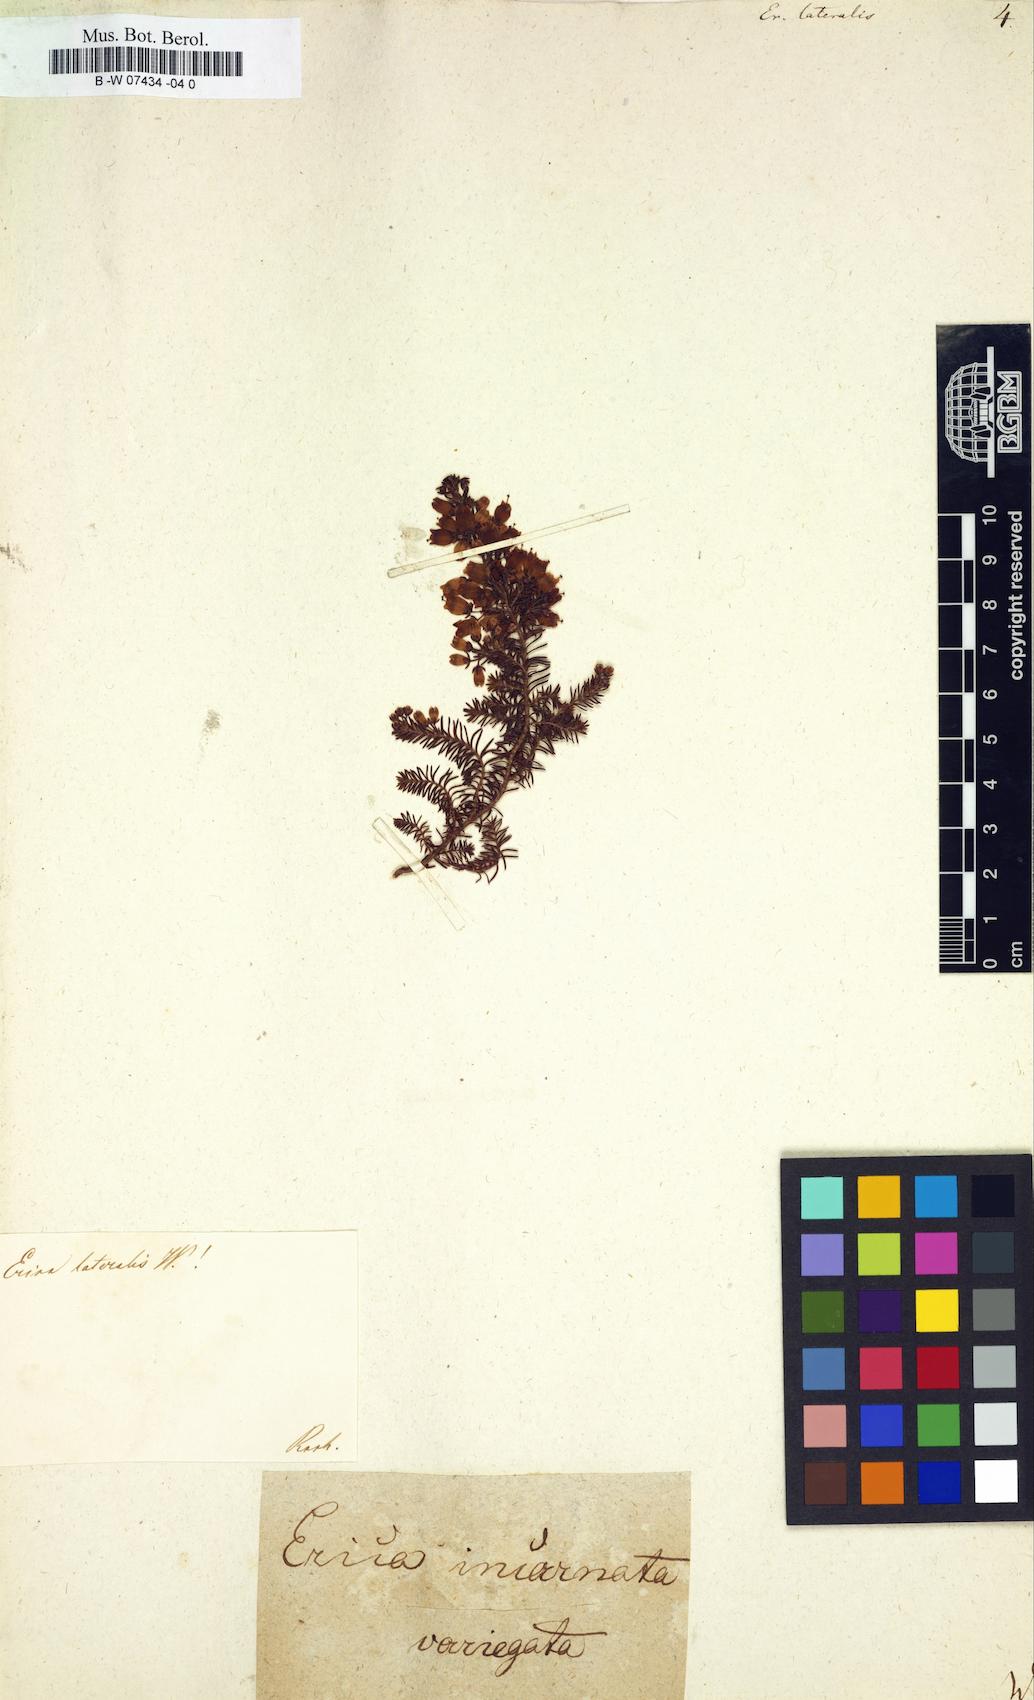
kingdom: Plantae
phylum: Tracheophyta
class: Magnoliopsida
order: Ericales
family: Ericaceae
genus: Erica
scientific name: Erica lateralis
